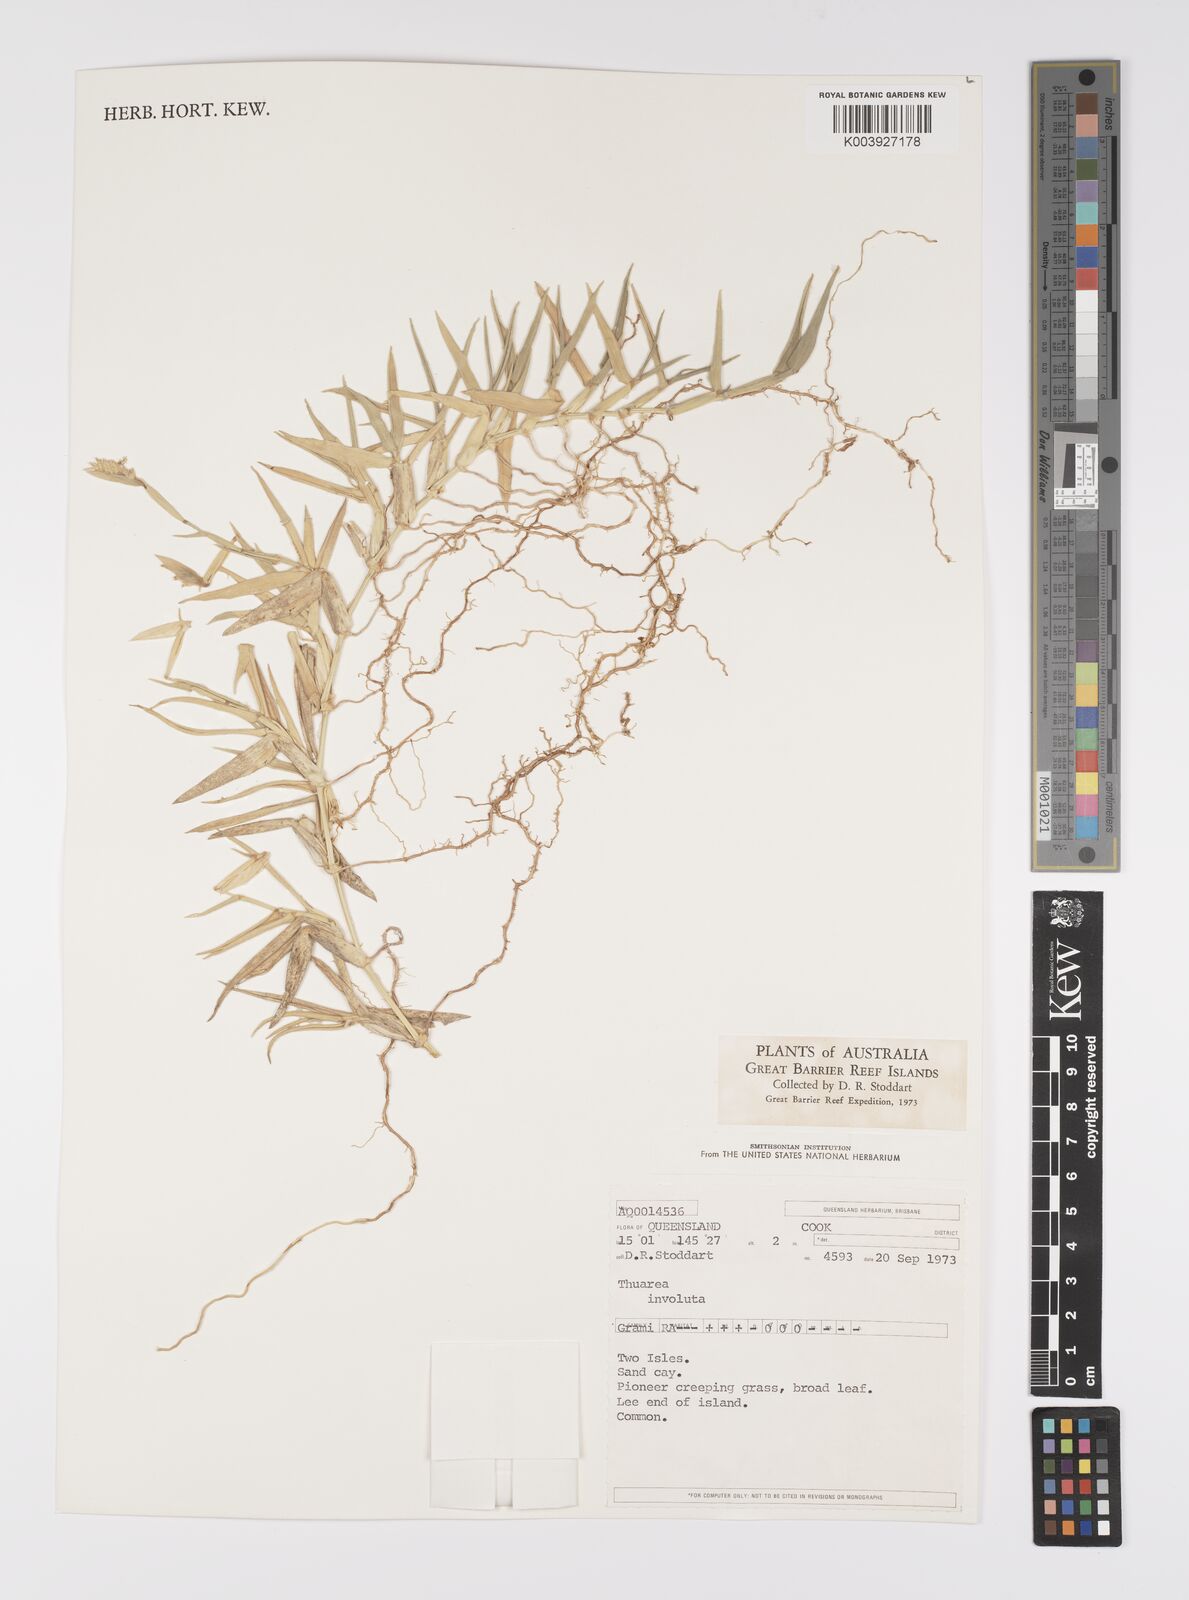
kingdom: Plantae
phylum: Tracheophyta
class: Liliopsida
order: Poales
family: Poaceae
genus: Thuarea
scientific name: Thuarea involuta
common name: Tropical beach grass
